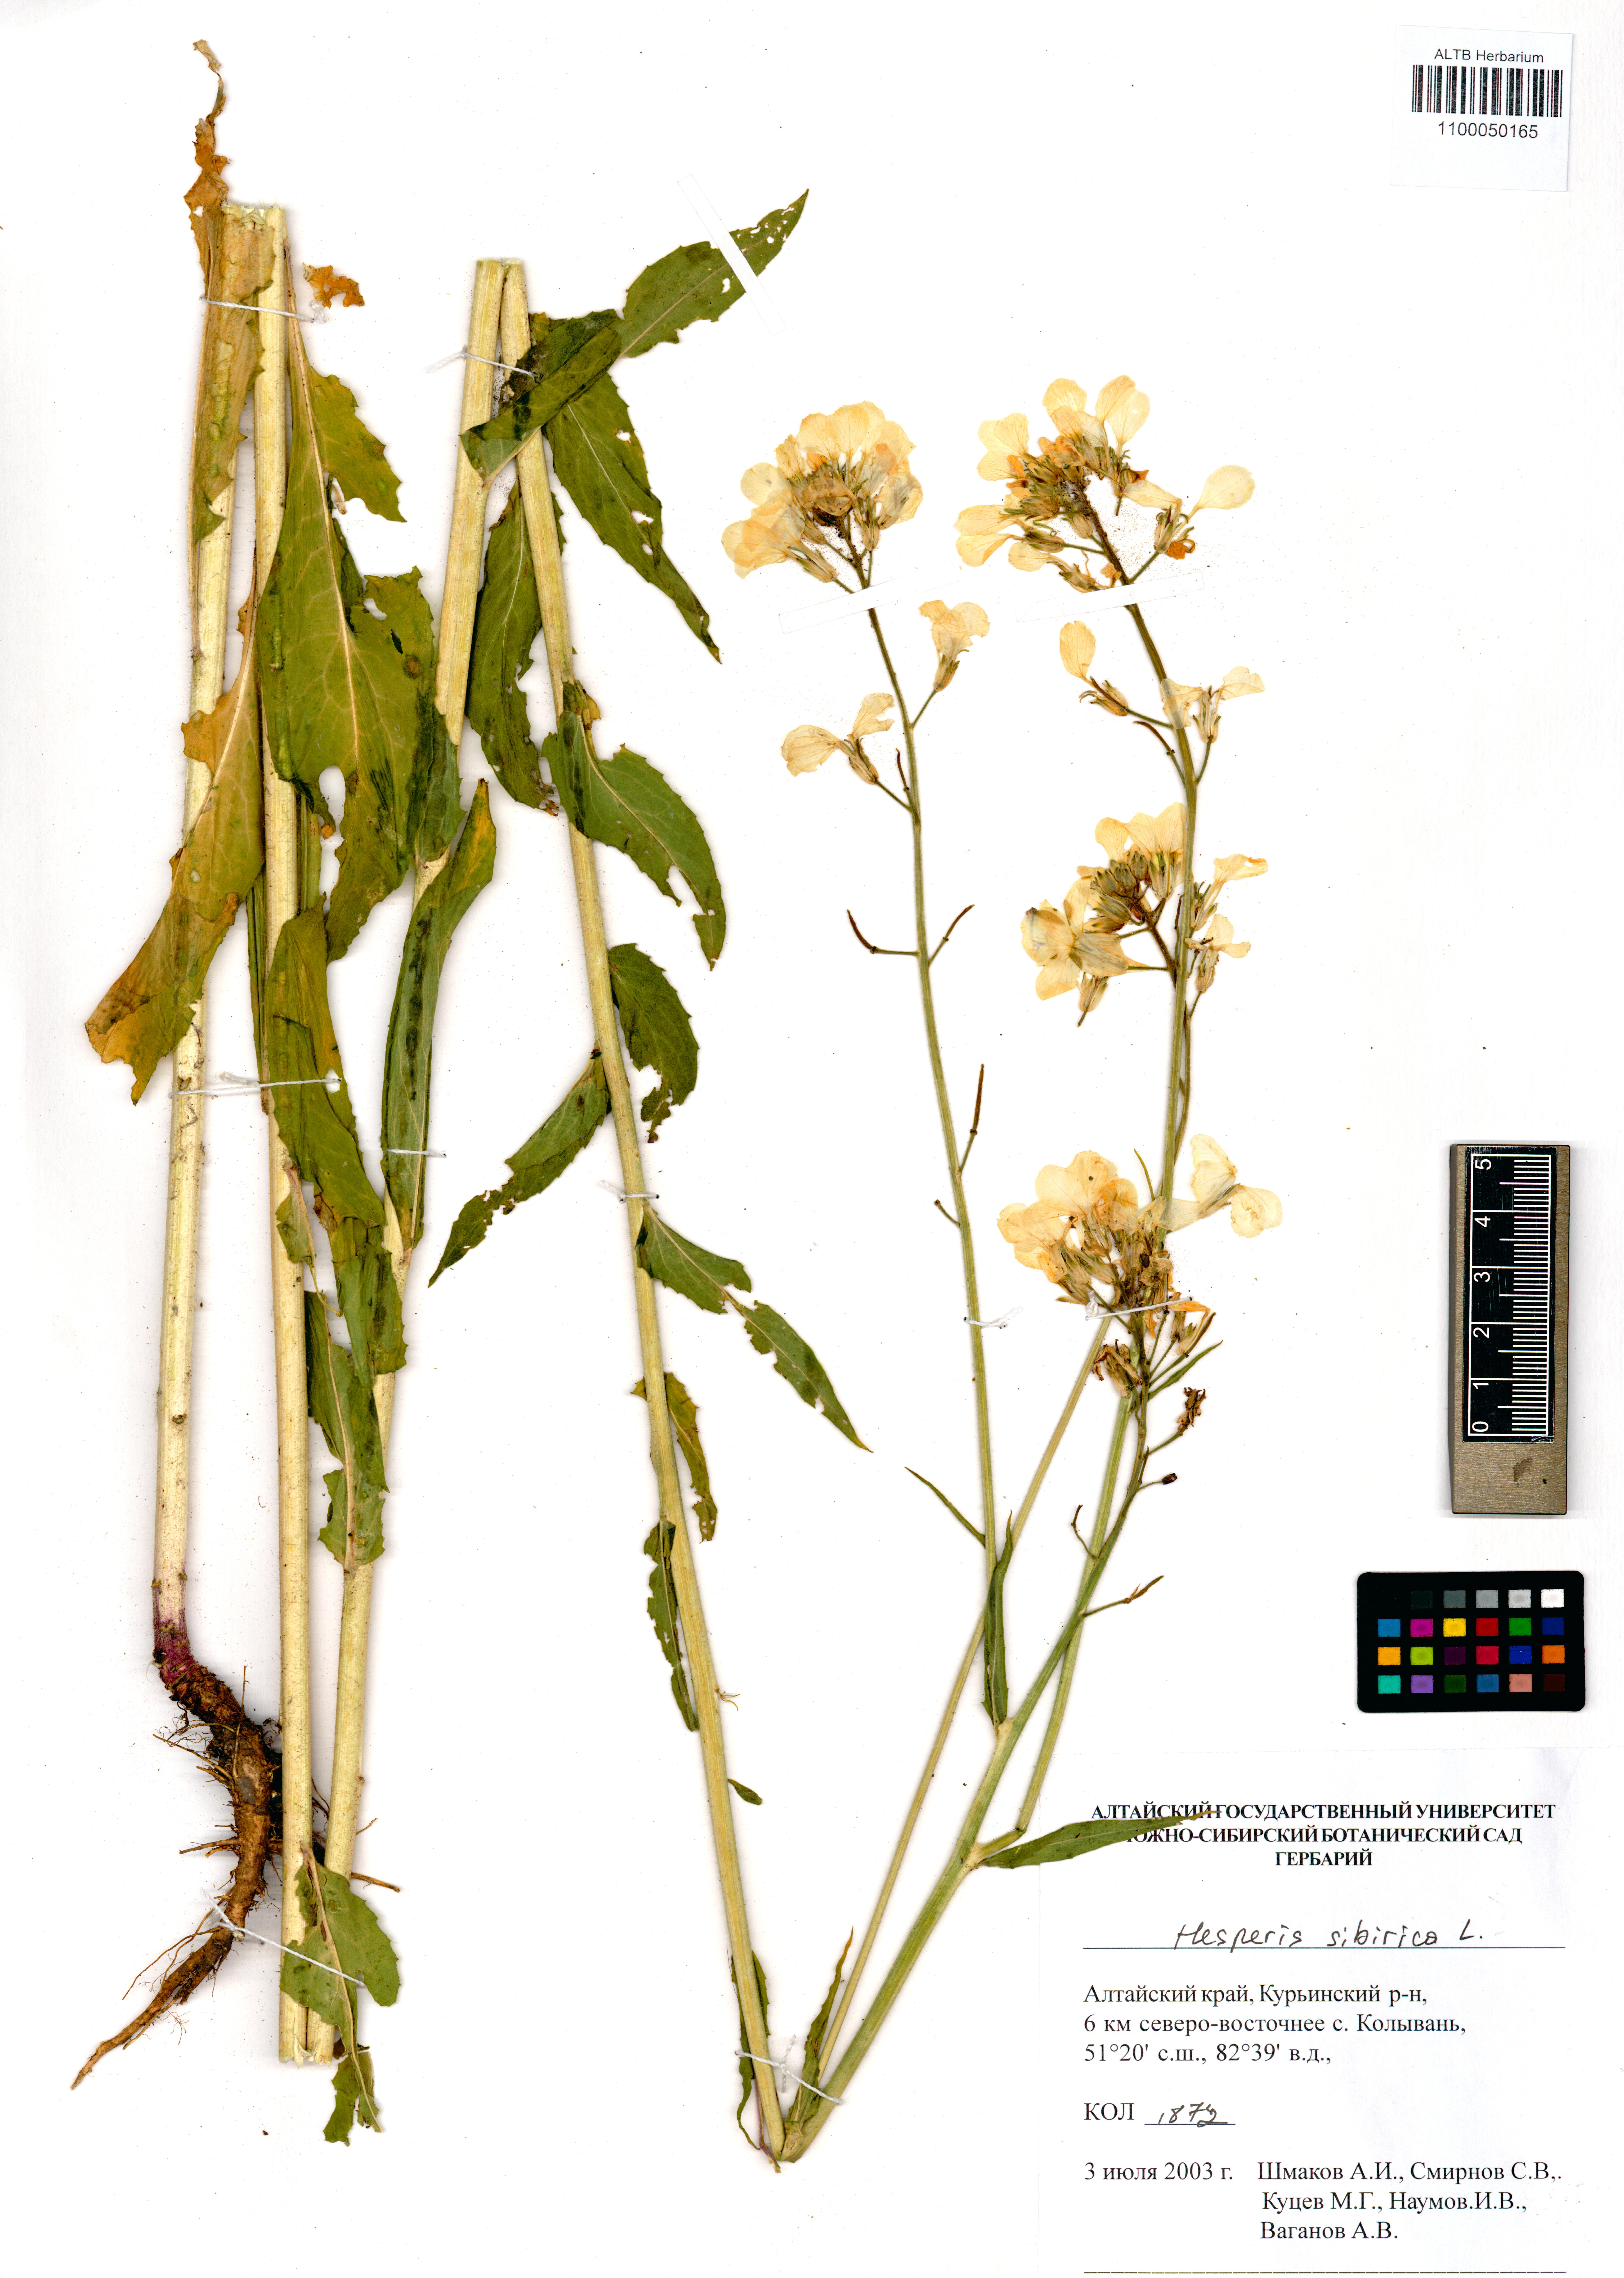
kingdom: Plantae
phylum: Tracheophyta
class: Magnoliopsida
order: Brassicales
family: Brassicaceae
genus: Hesperis
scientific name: Hesperis sibirica
